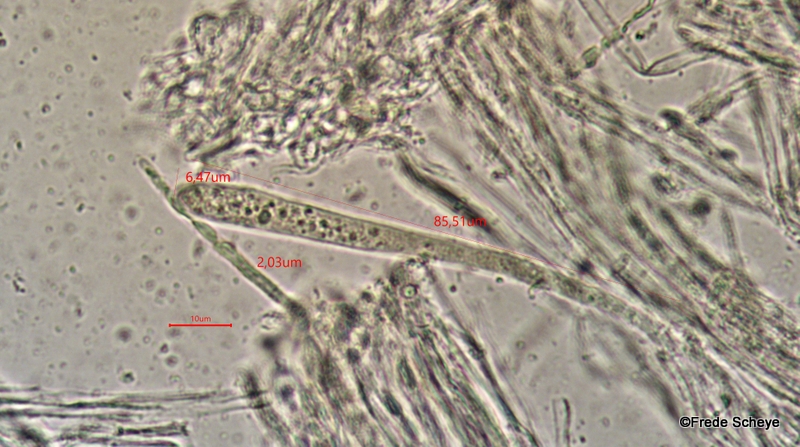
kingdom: Fungi
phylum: Ascomycota
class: Leotiomycetes
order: Helotiales
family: Helotiaceae
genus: Bispora
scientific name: Bispora pallescens
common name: måtte-snitskive
